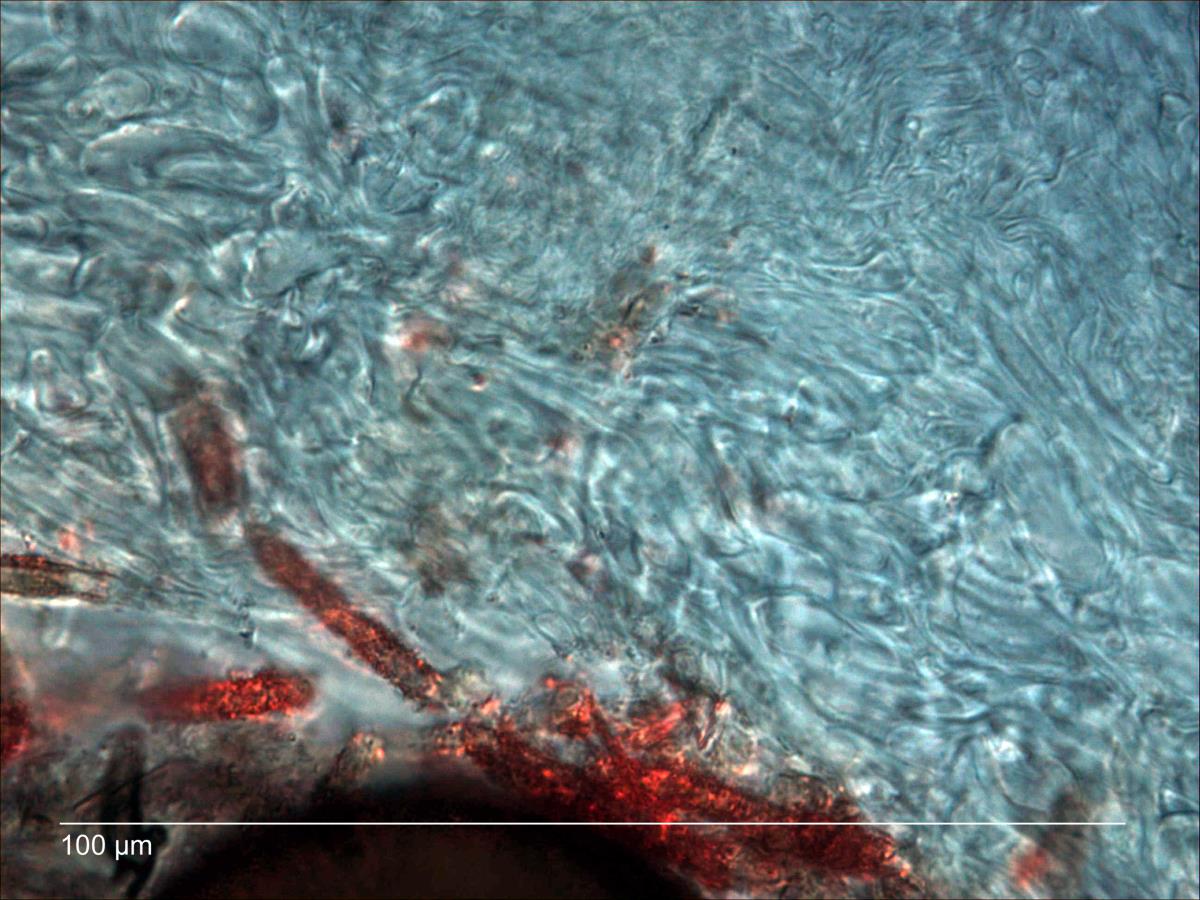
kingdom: Fungi
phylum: Ascomycota
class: Leotiomycetes
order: Helotiales
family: Lachnaceae
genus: Perrotia
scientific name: Perrotia
